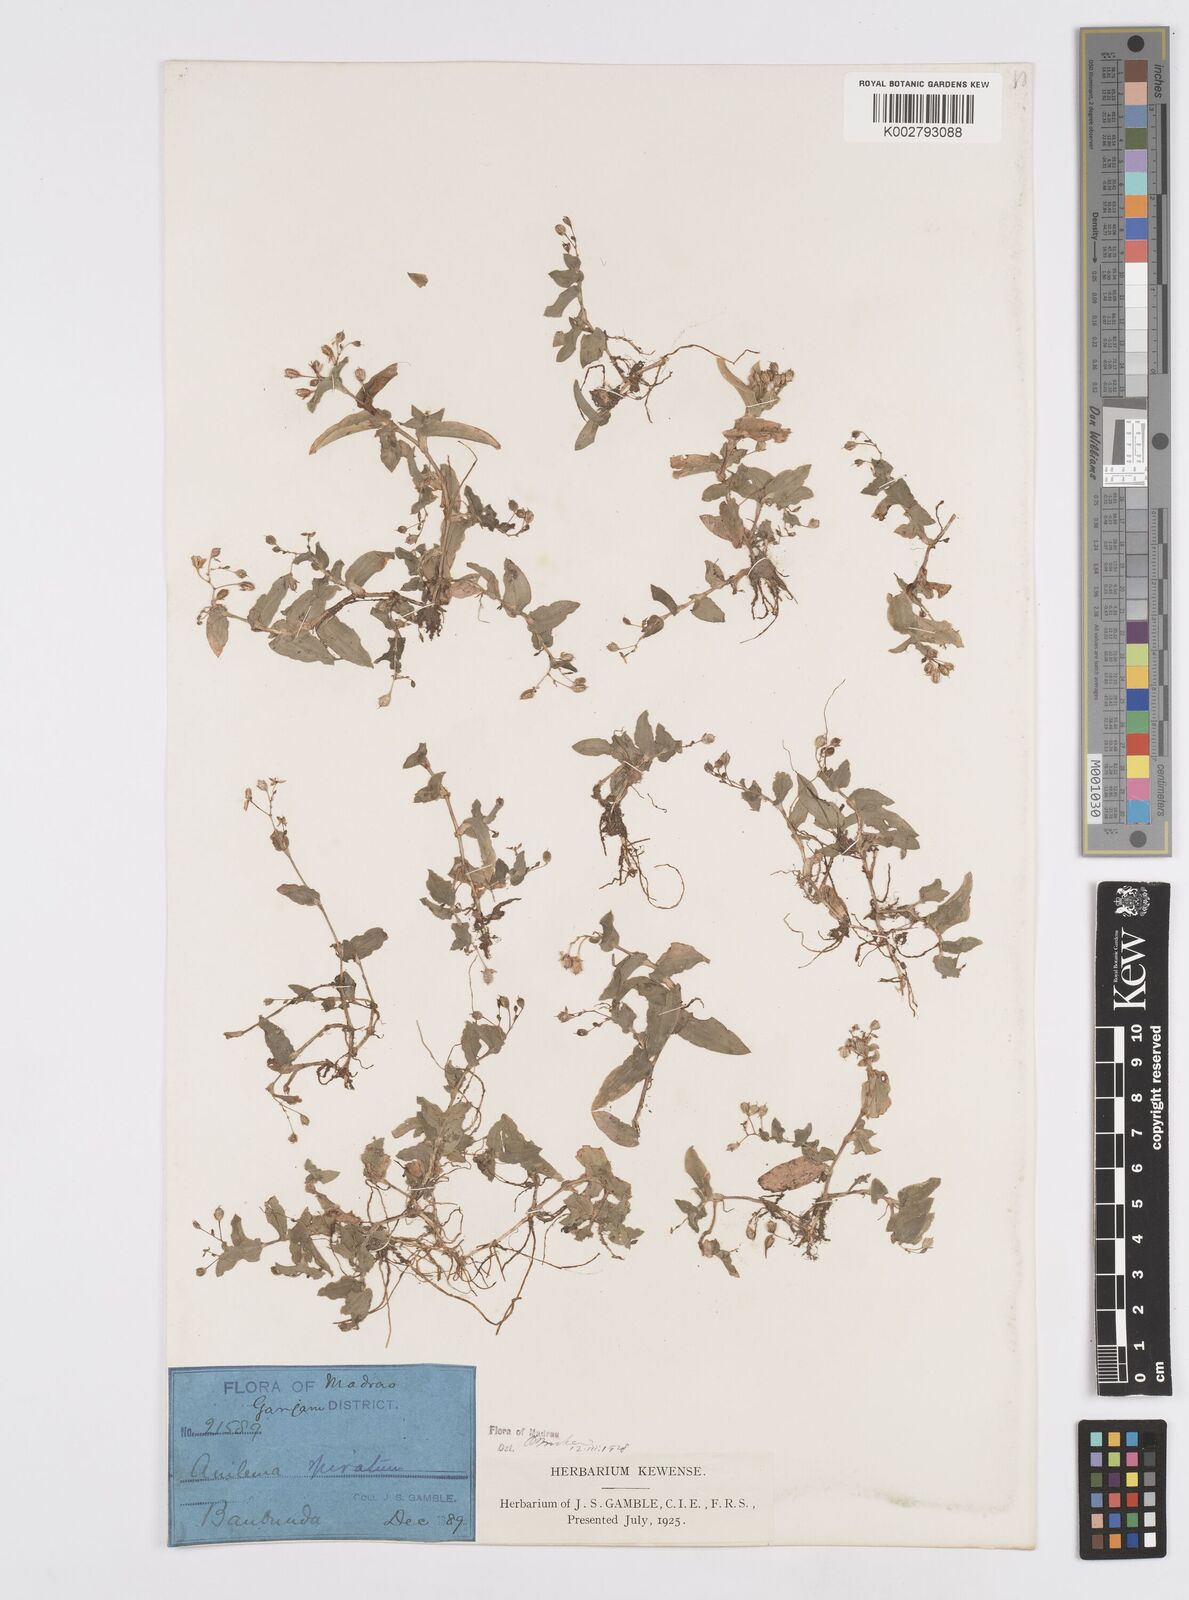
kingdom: Plantae
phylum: Tracheophyta
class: Liliopsida
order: Commelinales
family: Commelinaceae
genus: Murdannia
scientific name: Murdannia spirata
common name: Asiatic dewflower
